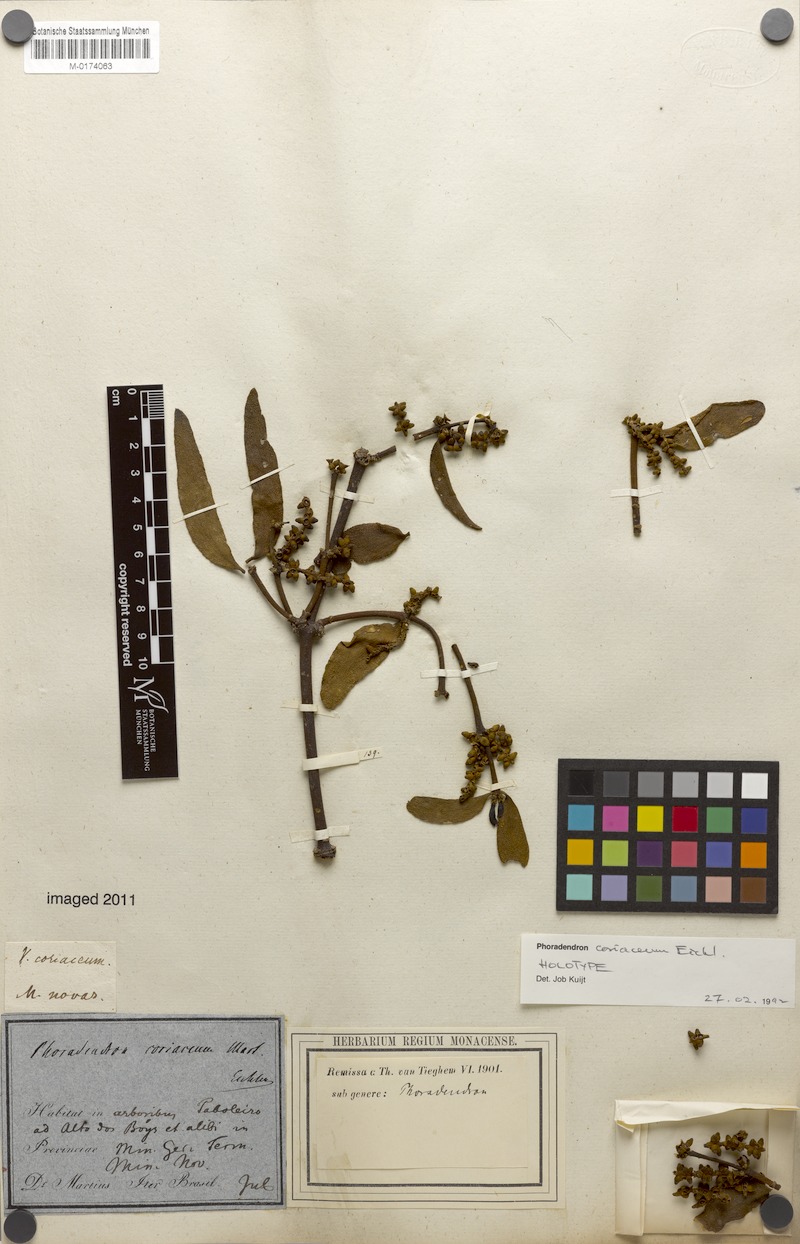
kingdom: Plantae
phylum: Tracheophyta
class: Magnoliopsida
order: Santalales
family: Viscaceae
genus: Phoradendron
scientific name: Phoradendron coriaceum
